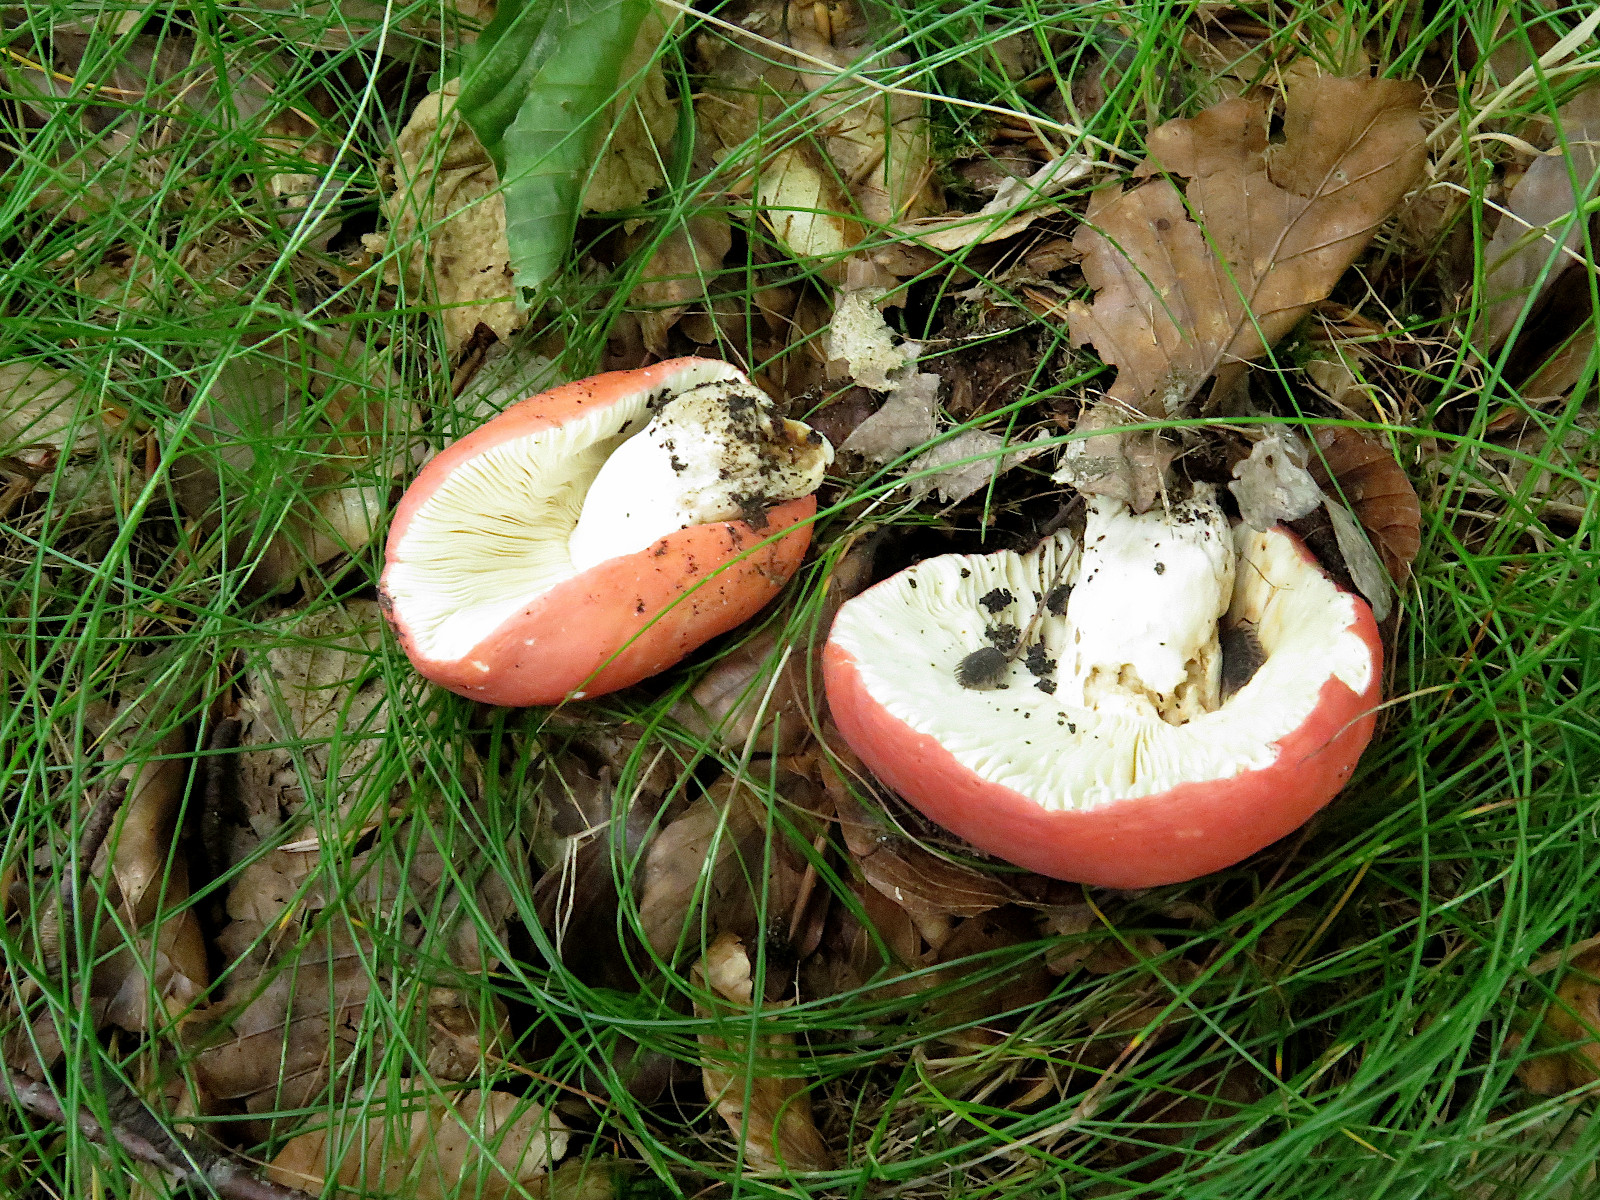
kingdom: Fungi
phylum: Basidiomycota
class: Agaricomycetes
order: Russulales
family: Russulaceae
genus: Russula
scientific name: Russula rosea
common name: fastkødet skørhat
